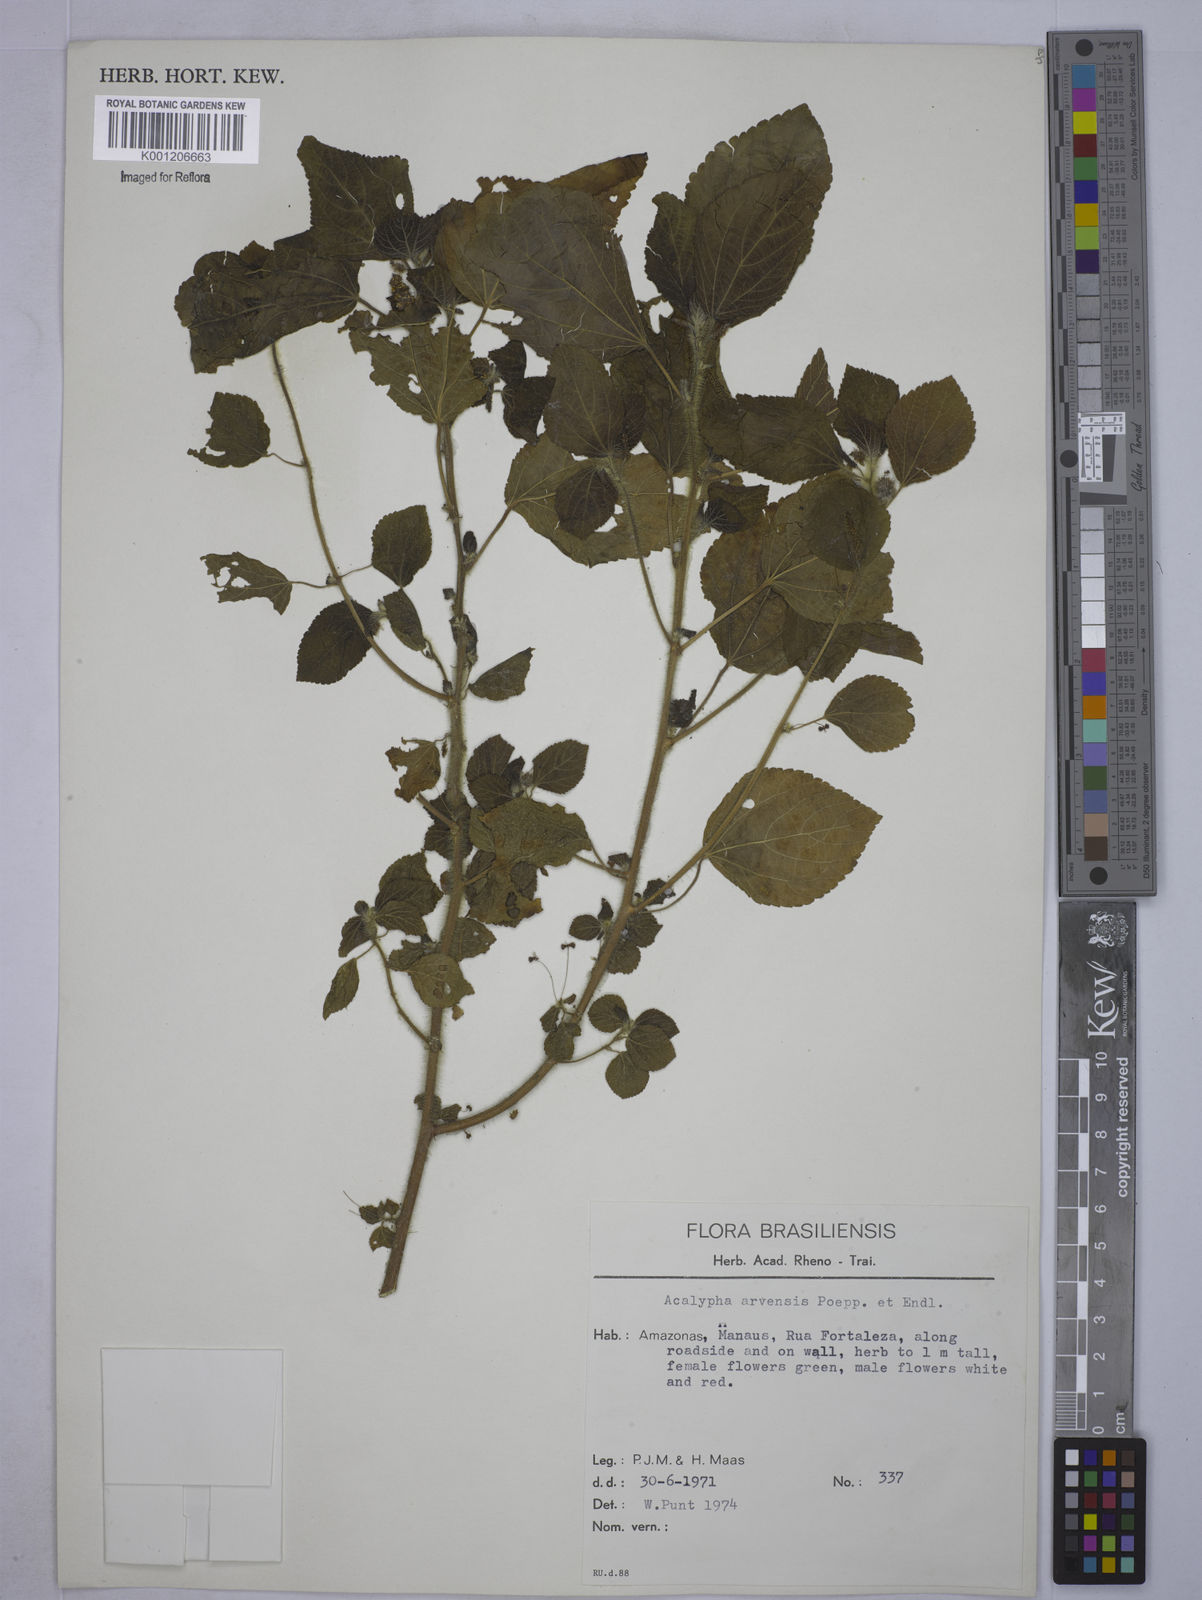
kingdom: Plantae
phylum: Tracheophyta
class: Magnoliopsida
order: Malpighiales
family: Euphorbiaceae
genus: Acalypha
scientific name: Acalypha arvensis
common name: Field copperleaf
